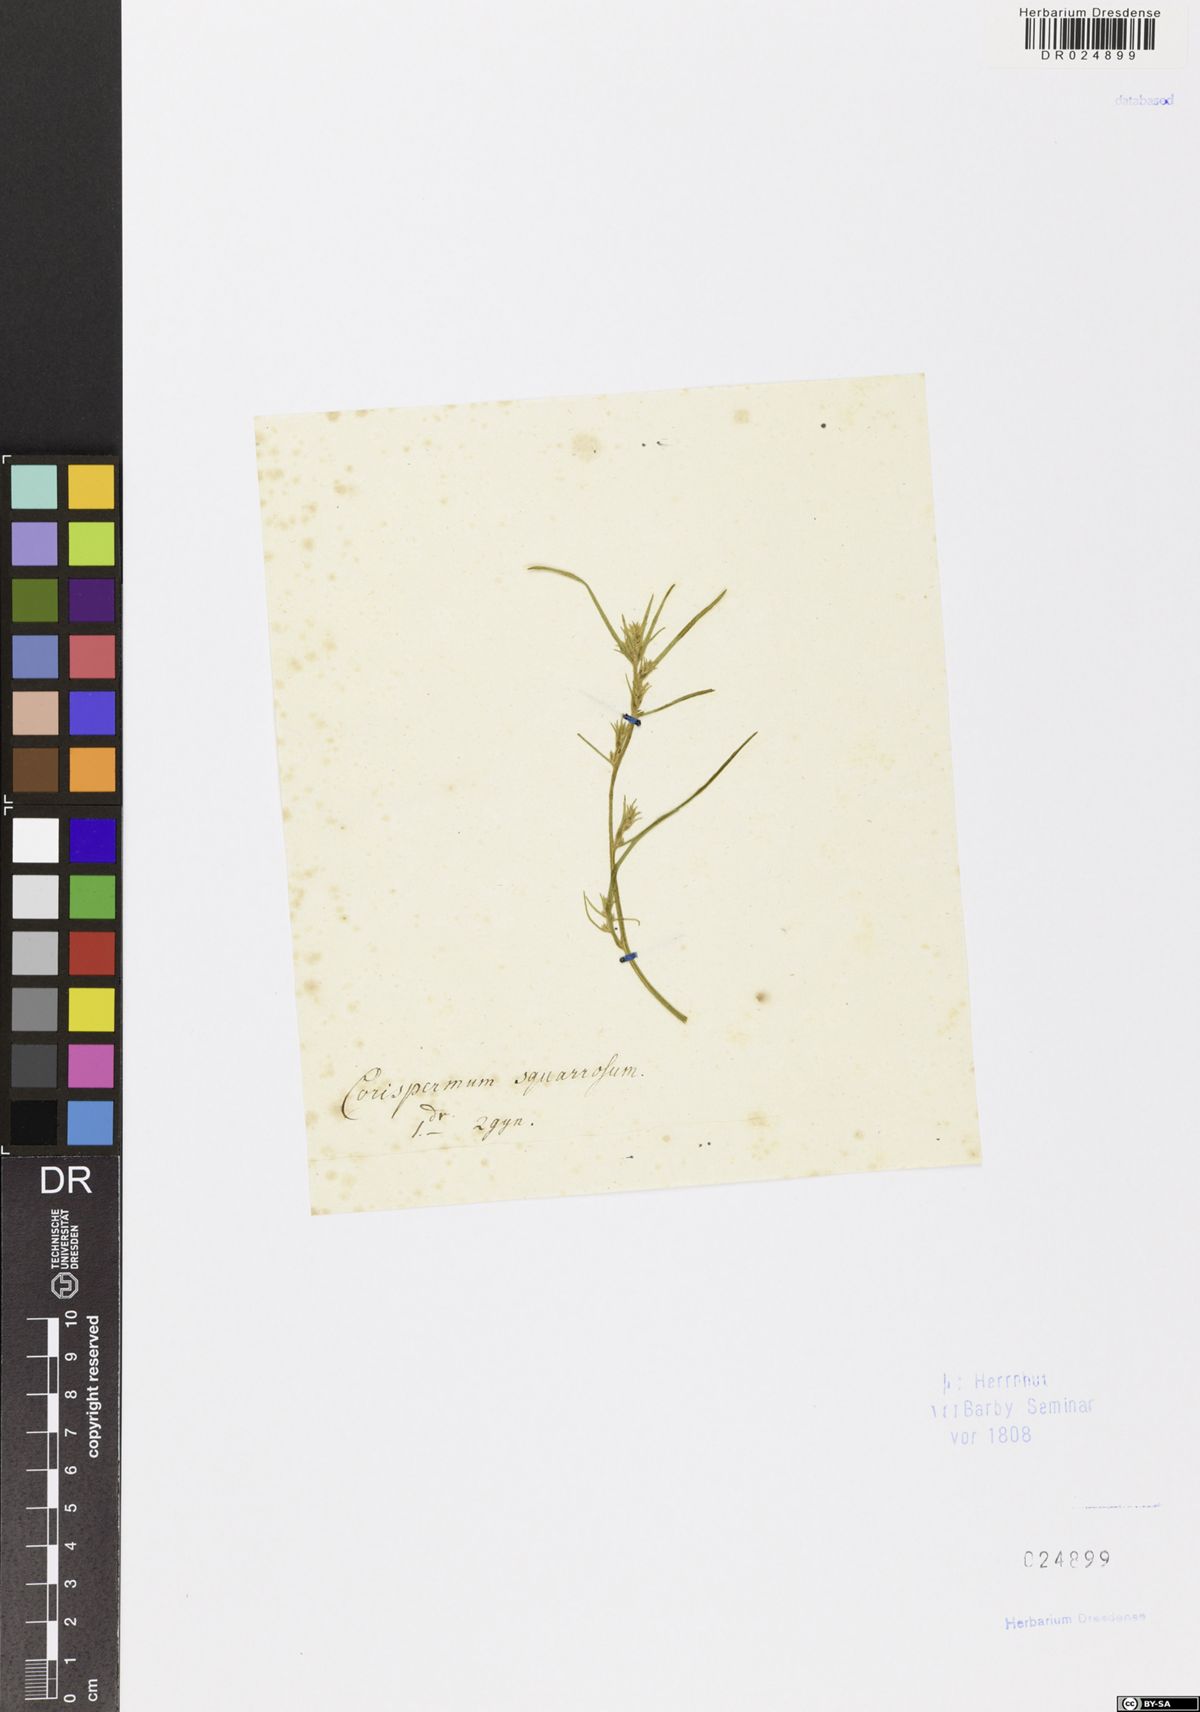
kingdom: Plantae
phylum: Tracheophyta
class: Magnoliopsida
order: Caryophyllales
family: Amaranthaceae
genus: Corispermum
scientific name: Corispermum squarrosum
